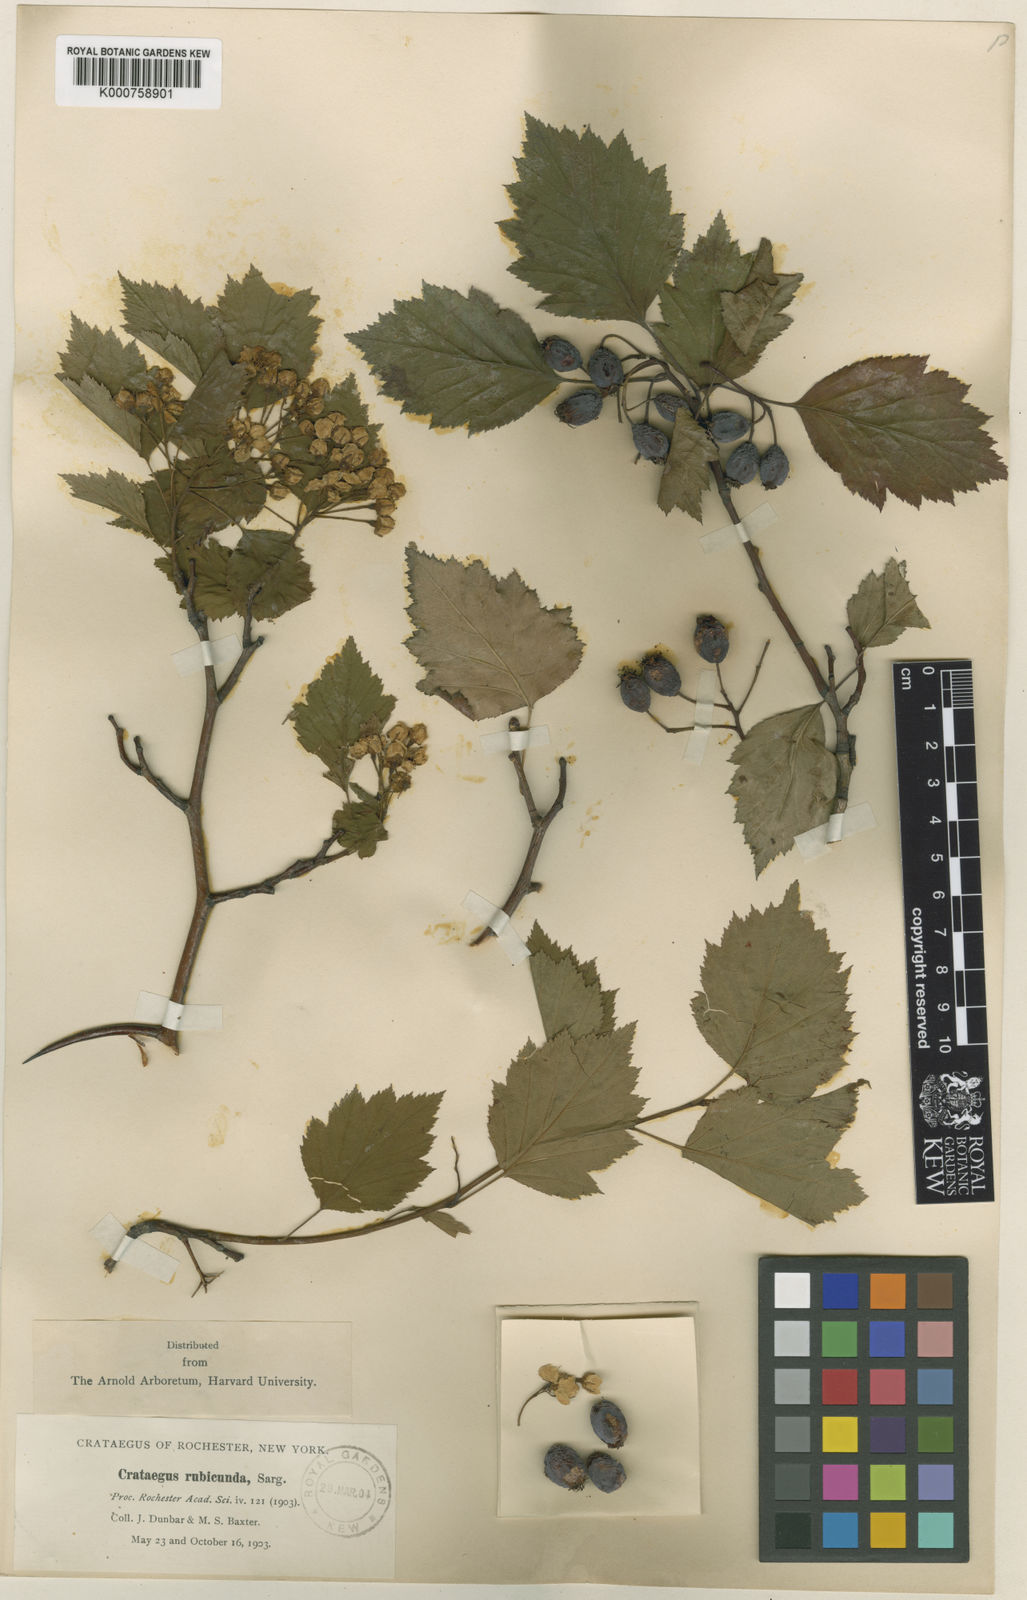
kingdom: Plantae
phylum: Tracheophyta
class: Magnoliopsida
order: Rosales
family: Rosaceae
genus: Crataegus
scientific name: Crataegus rubicunda
